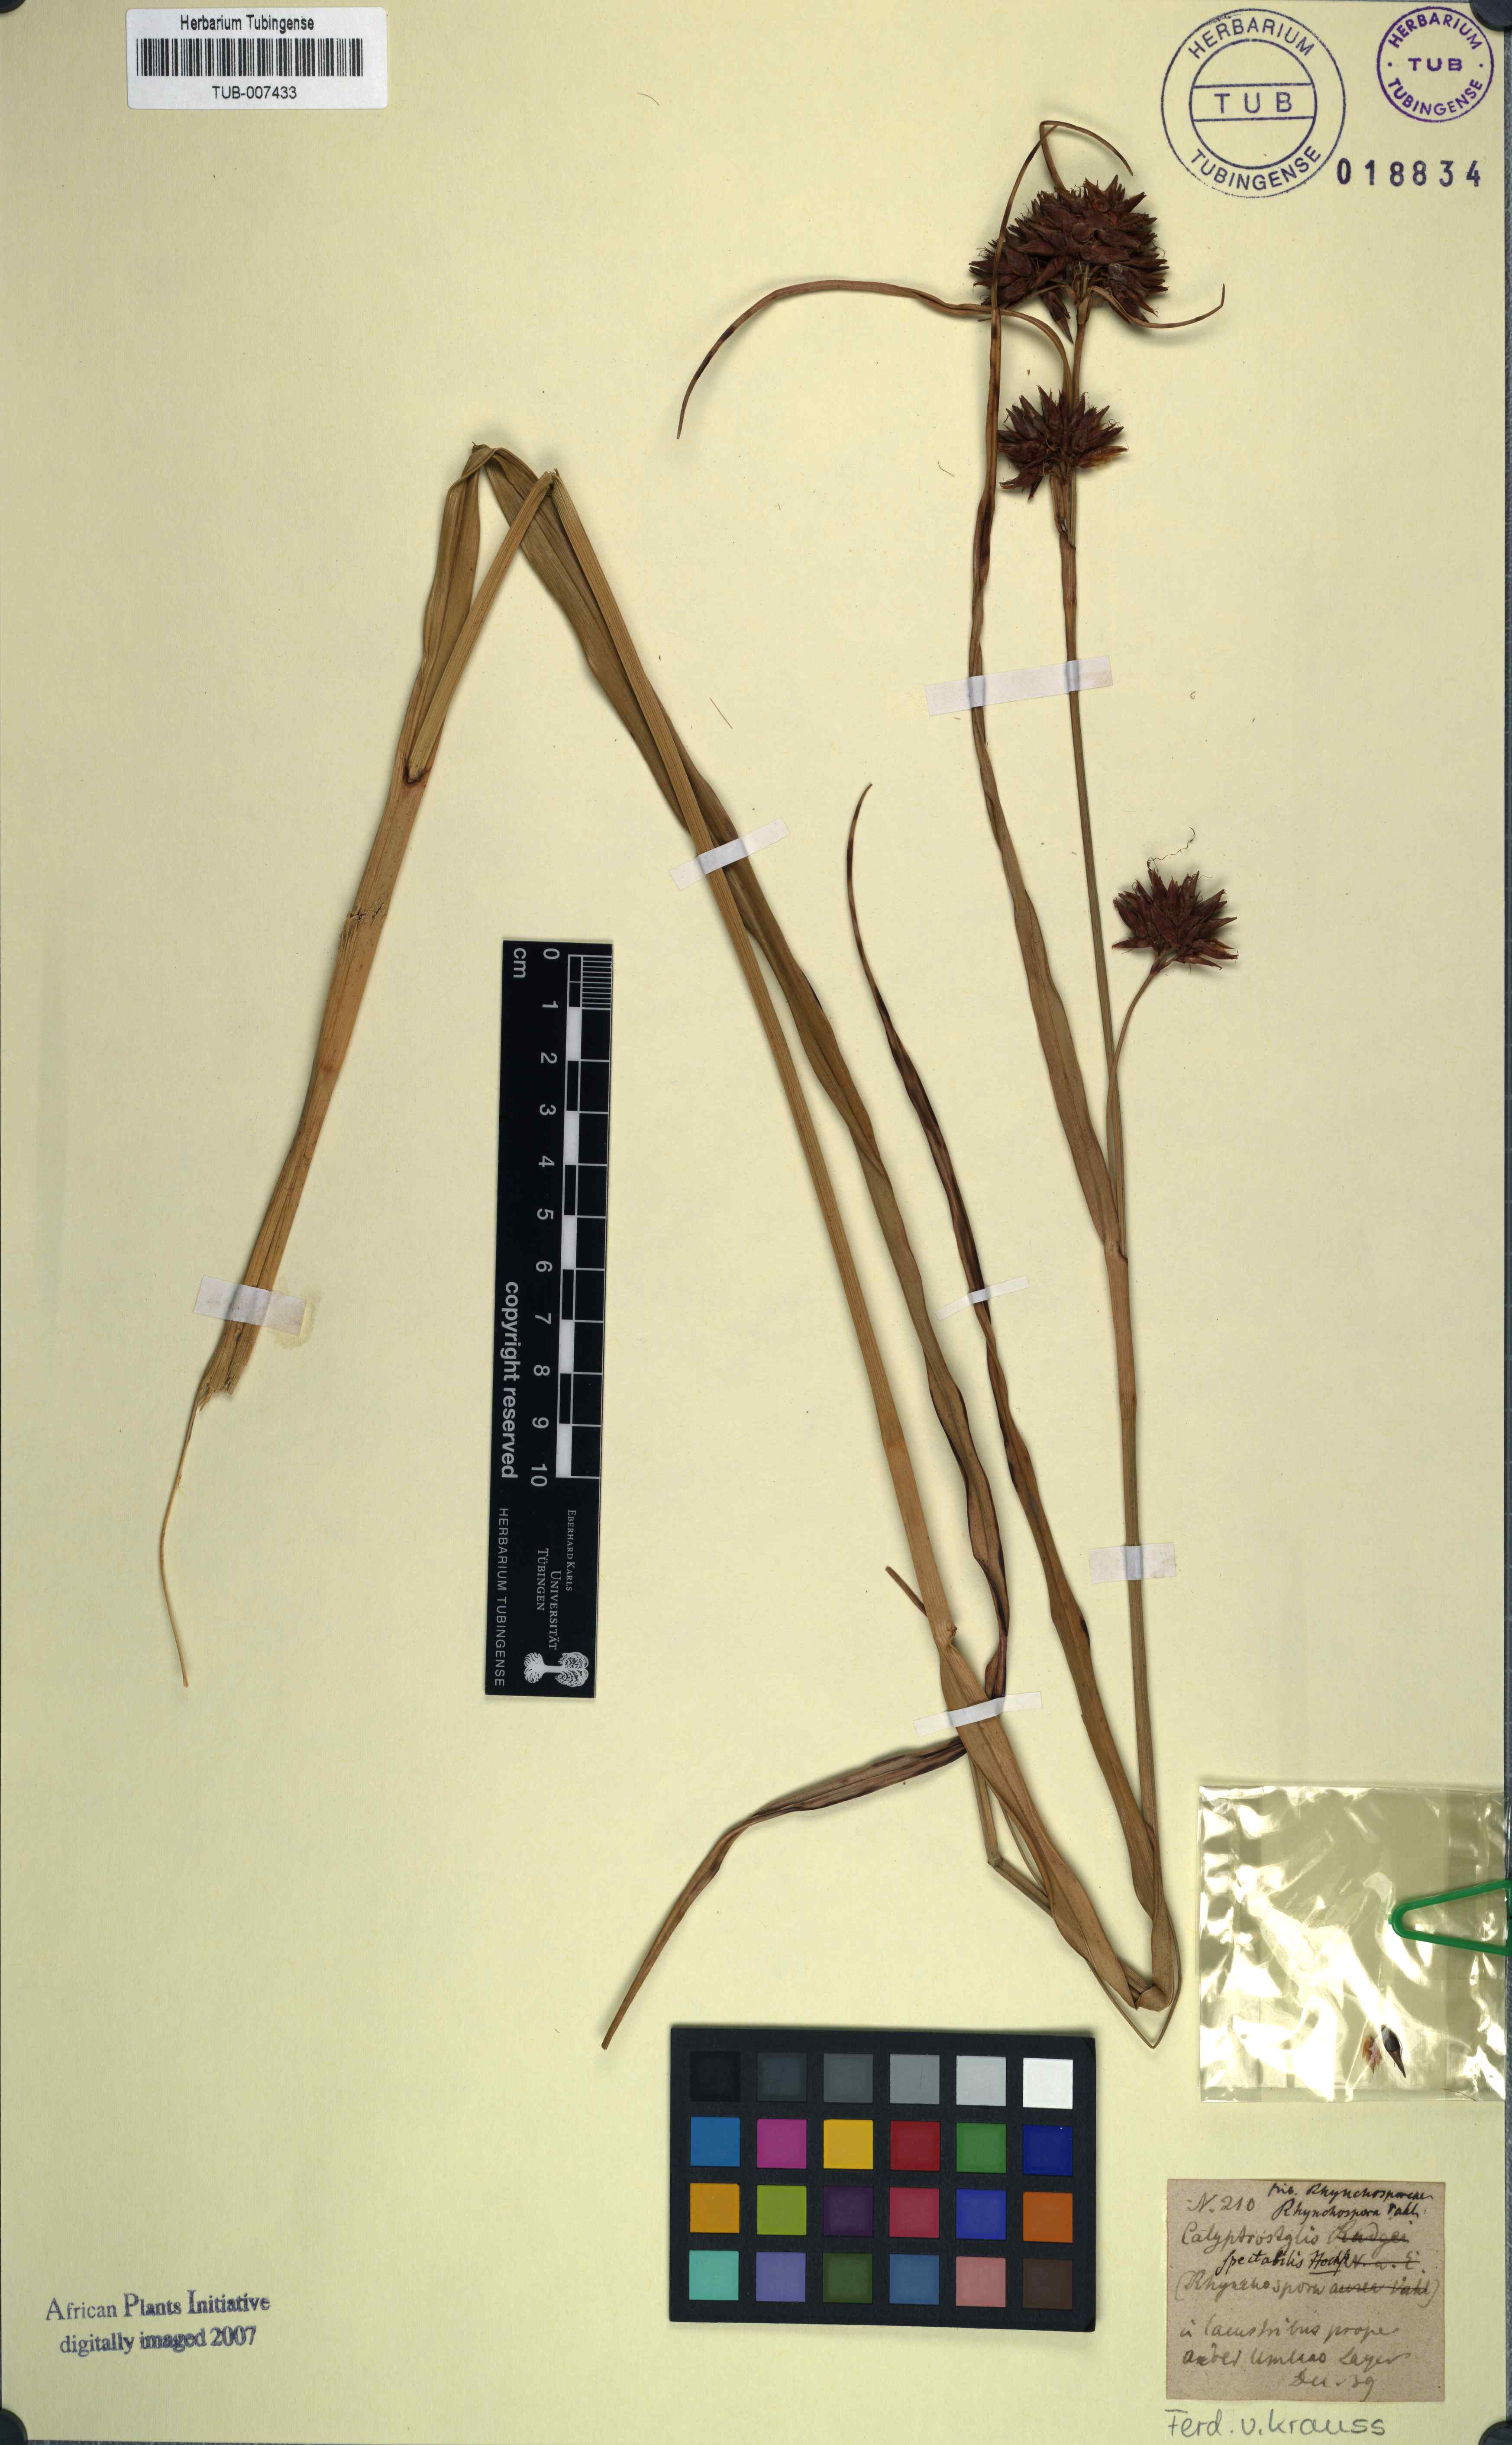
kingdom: Plantae
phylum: Tracheophyta
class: Liliopsida
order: Poales
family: Cyperaceae
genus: Rhynchospora
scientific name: Rhynchospora corymbosa
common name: Golden beak sedge
